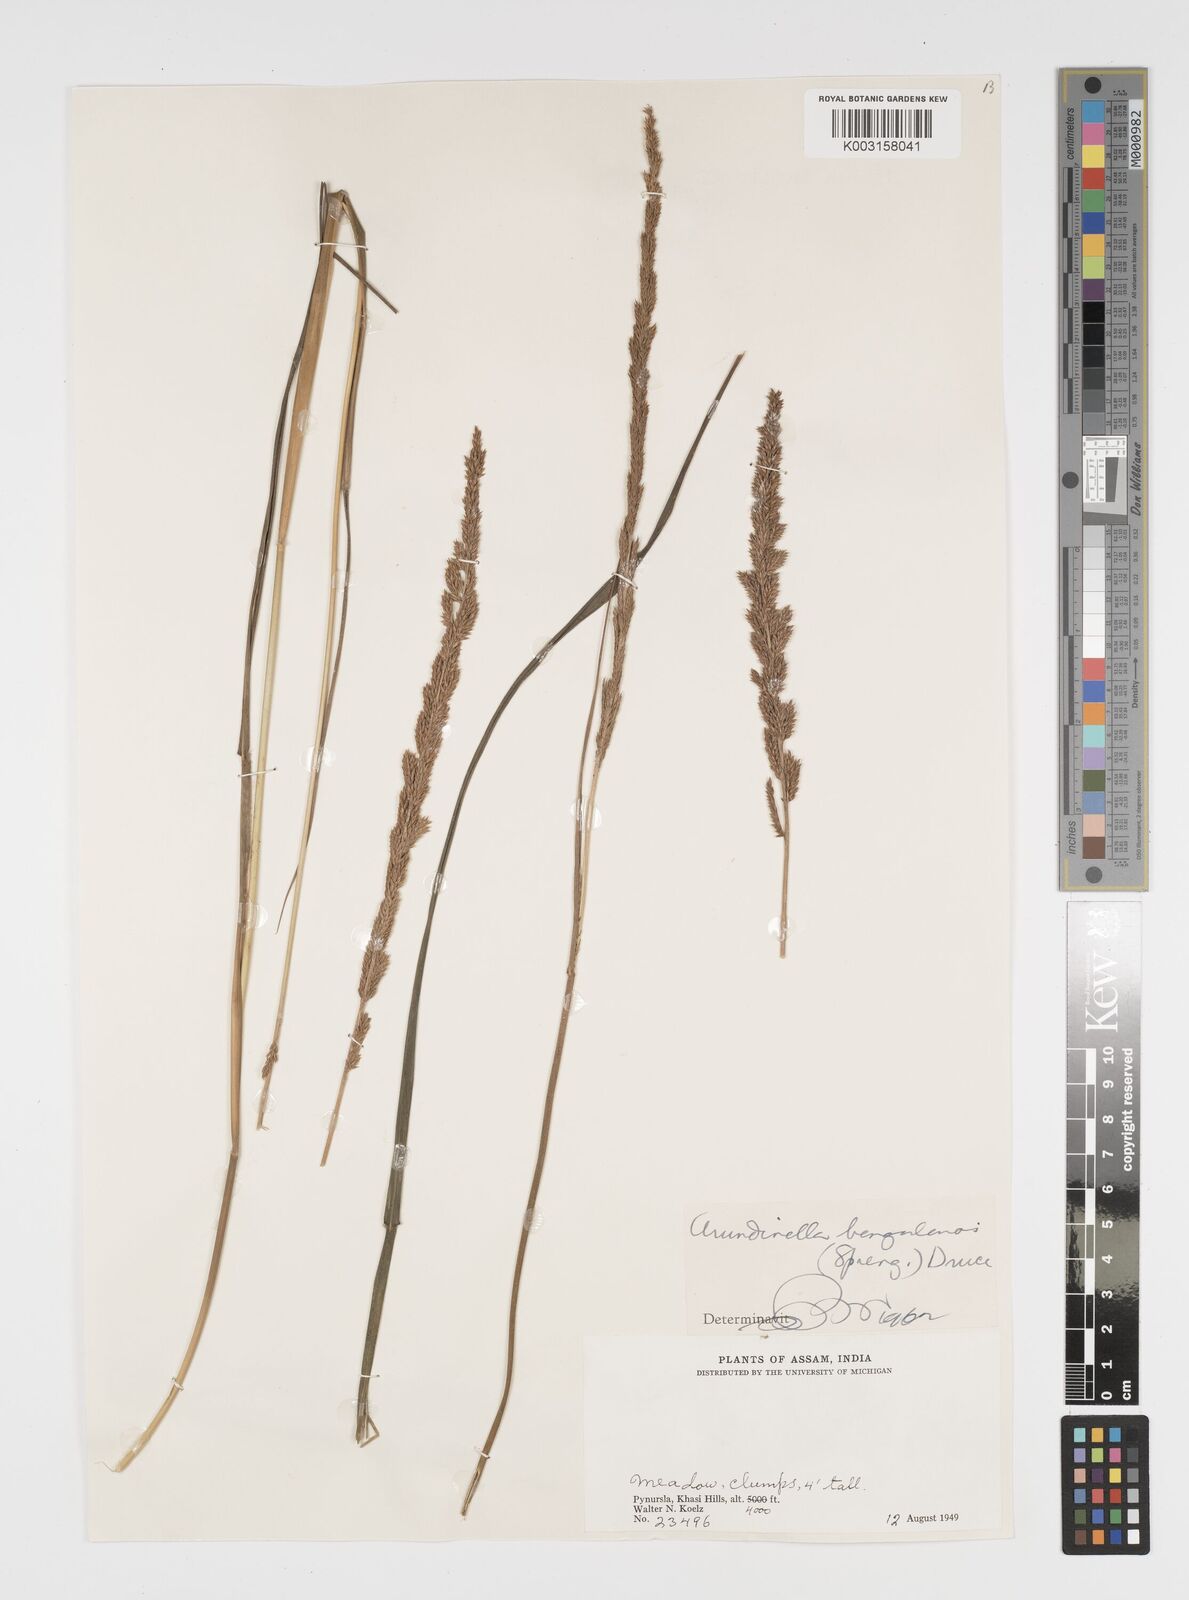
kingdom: Plantae
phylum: Tracheophyta
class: Liliopsida
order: Poales
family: Poaceae
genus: Arundinella
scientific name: Arundinella bengalensis
